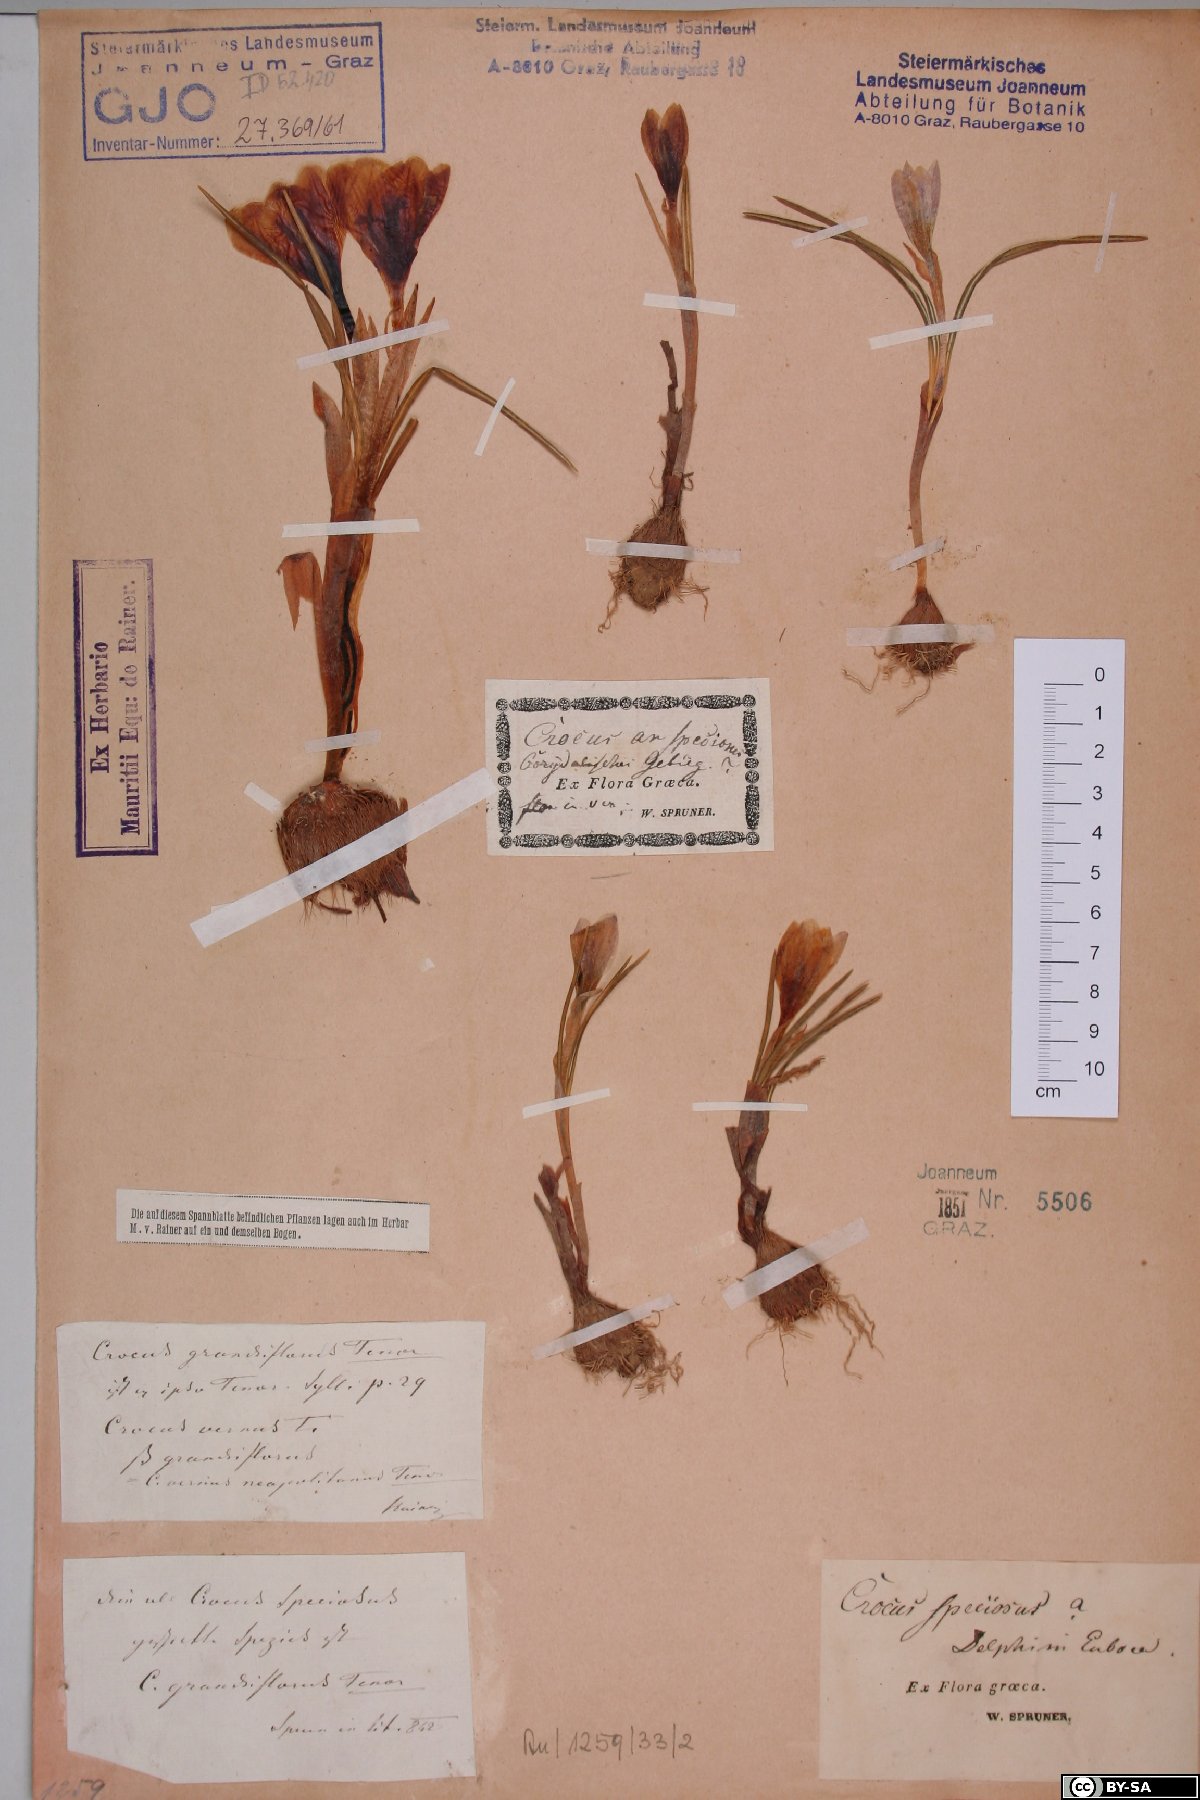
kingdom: Plantae
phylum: Tracheophyta
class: Liliopsida
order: Asparagales
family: Iridaceae
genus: Crocus
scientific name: Crocus speciosus
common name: Bieberstein's crocus
